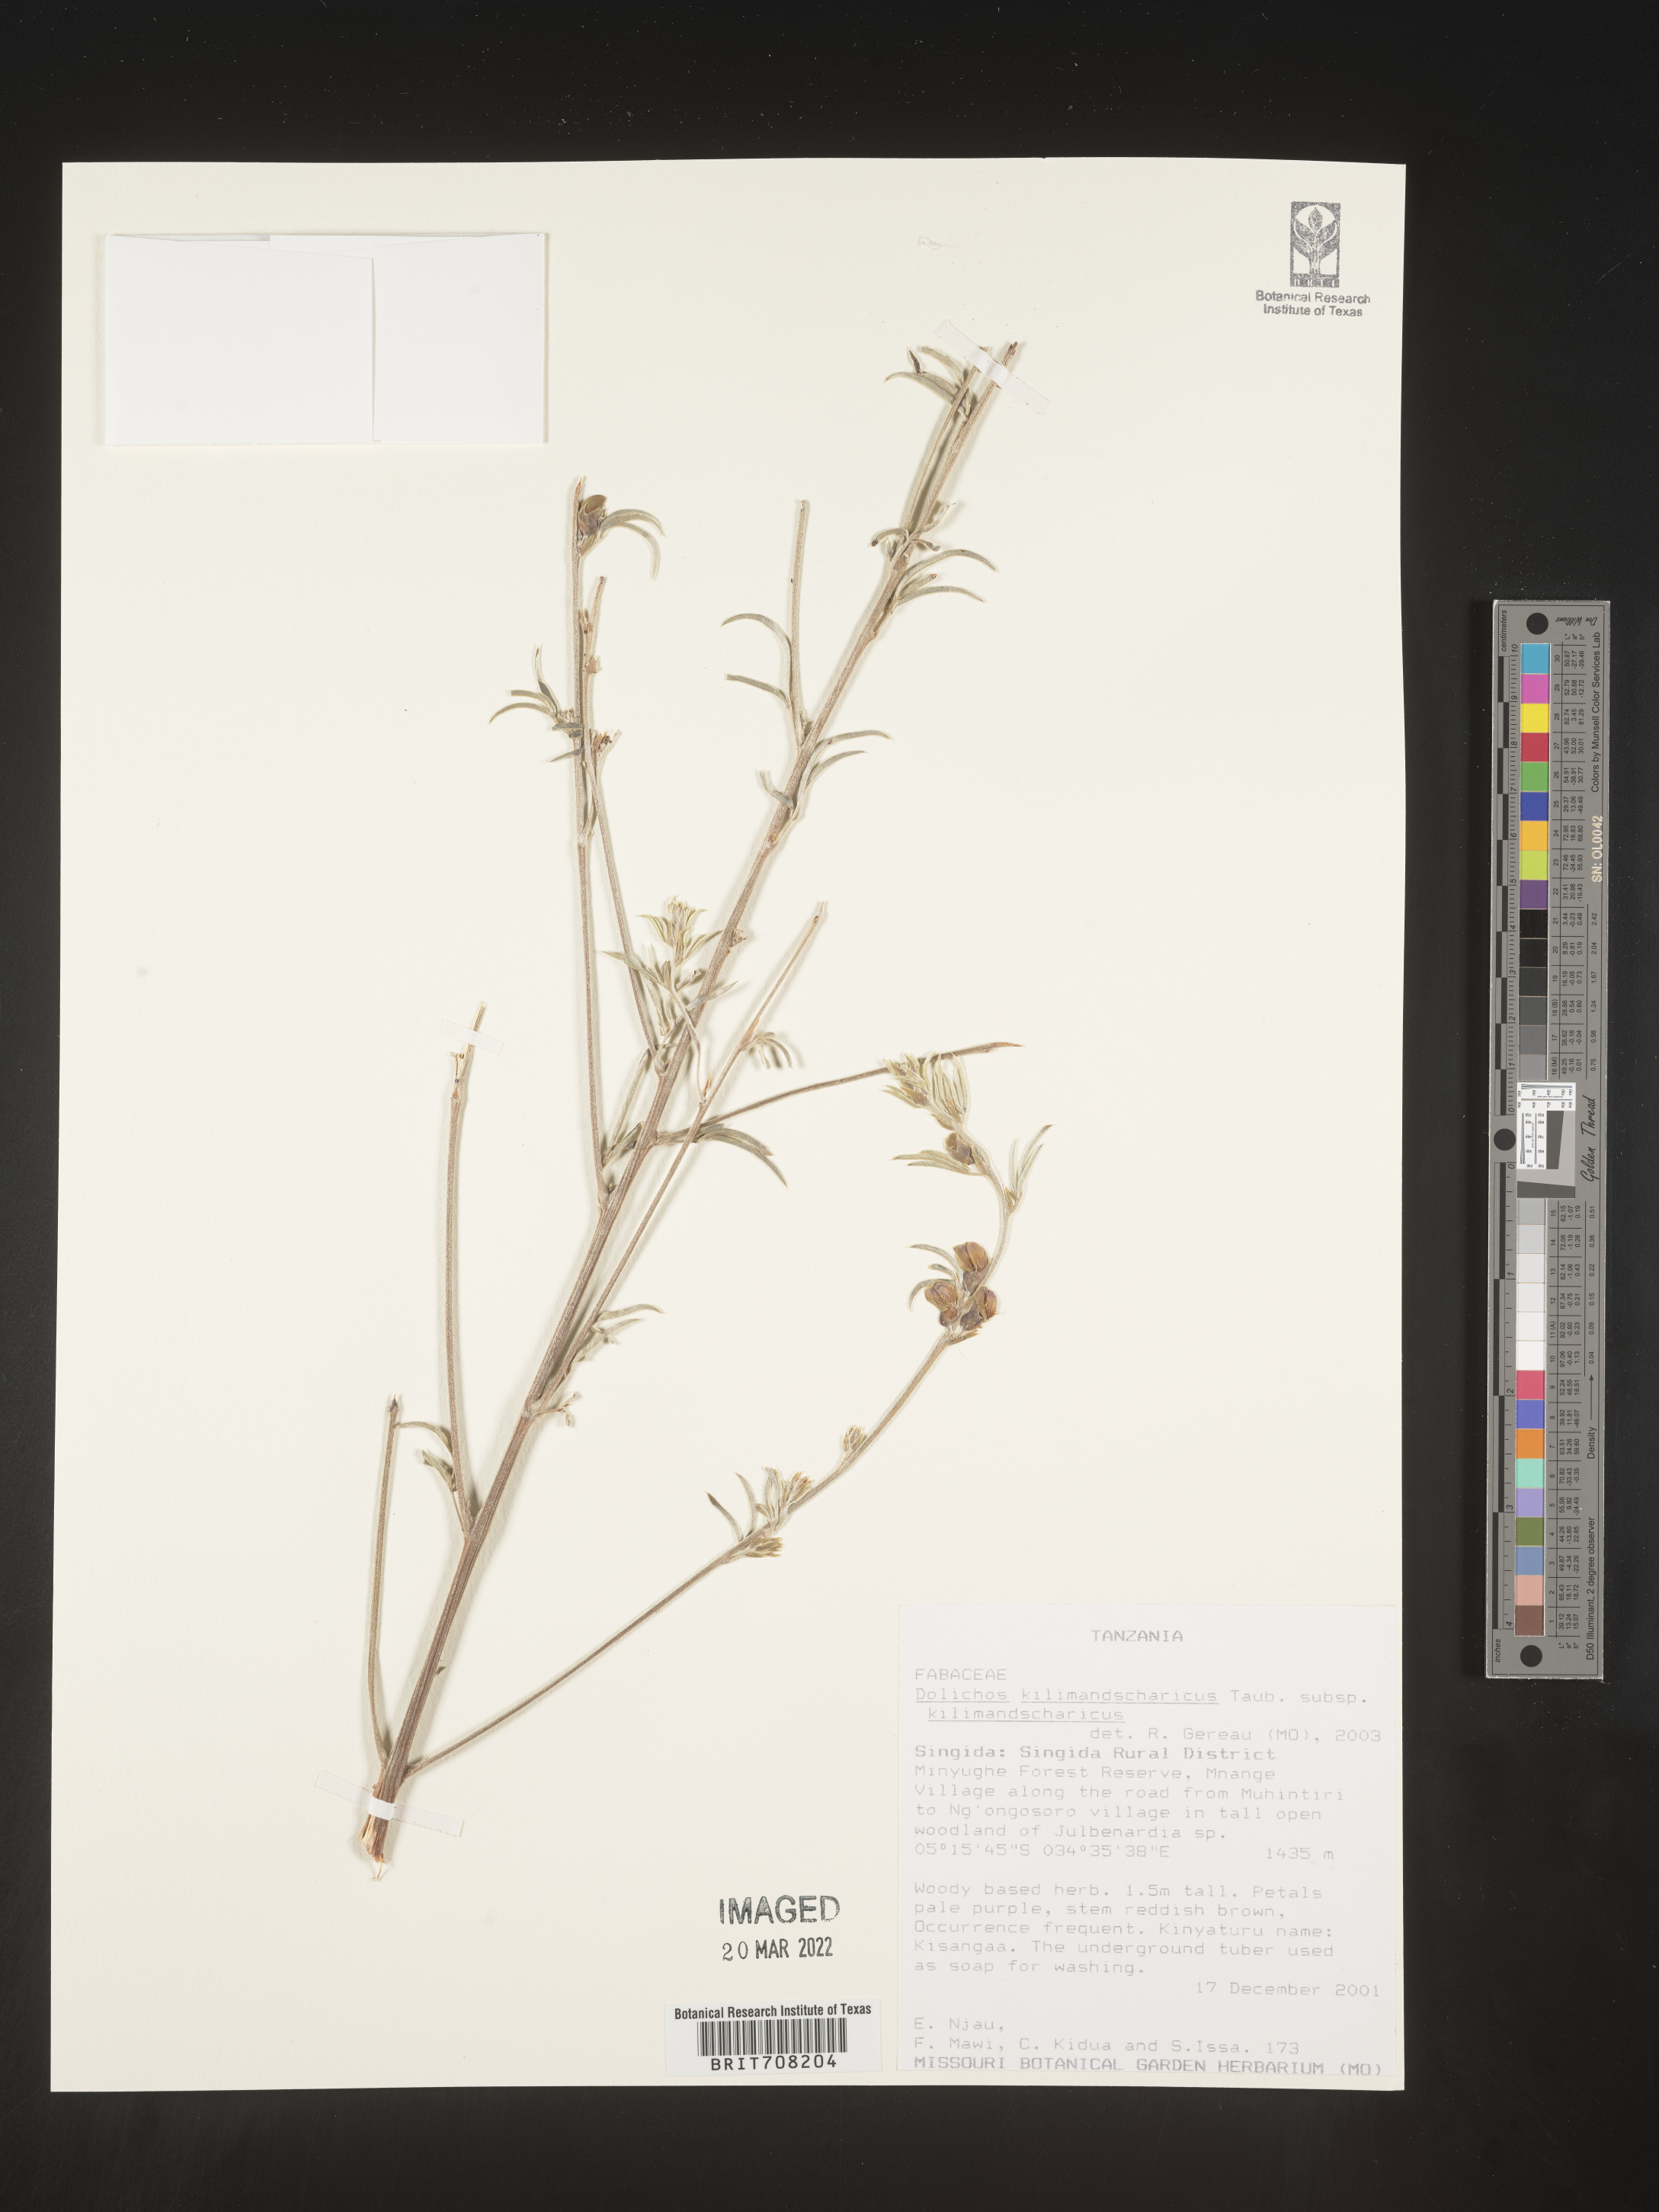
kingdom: Plantae
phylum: Tracheophyta
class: Magnoliopsida
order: Fabales
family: Fabaceae
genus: Dolichos
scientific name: Dolichos
